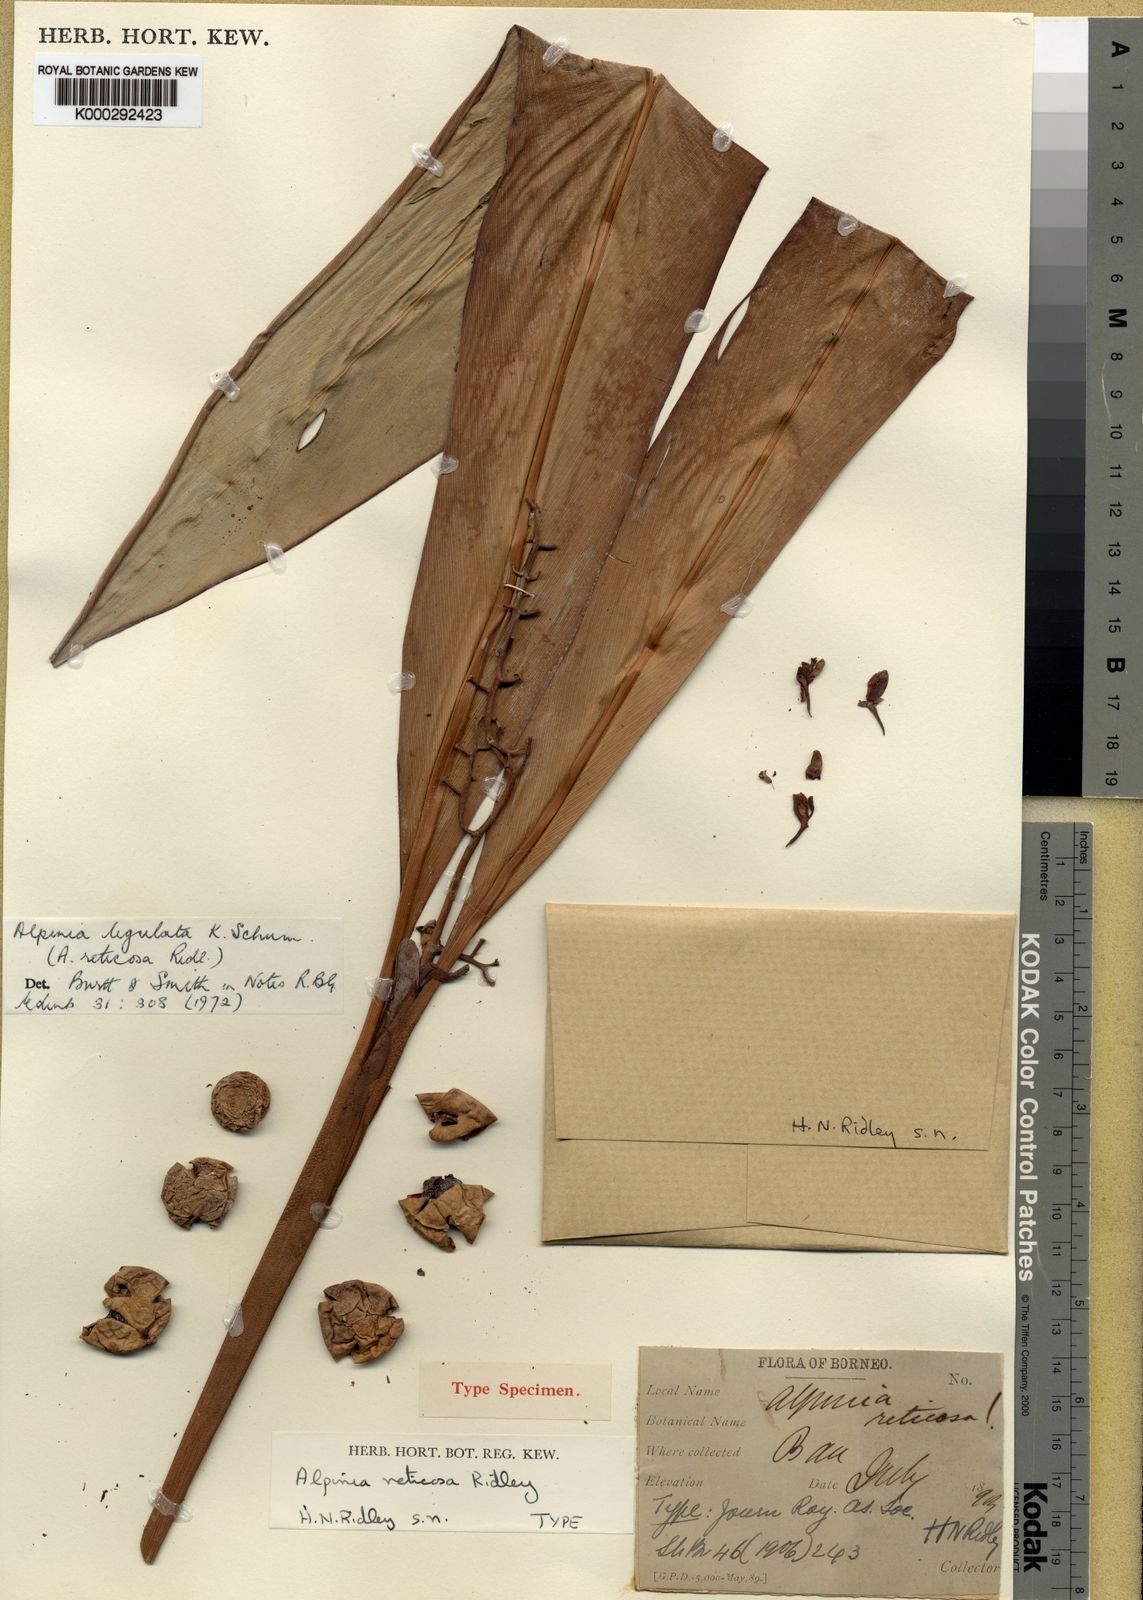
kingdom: Plantae
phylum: Tracheophyta
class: Liliopsida
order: Zingiberales
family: Zingiberaceae
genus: Alpinia
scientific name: Alpinia ligulata
